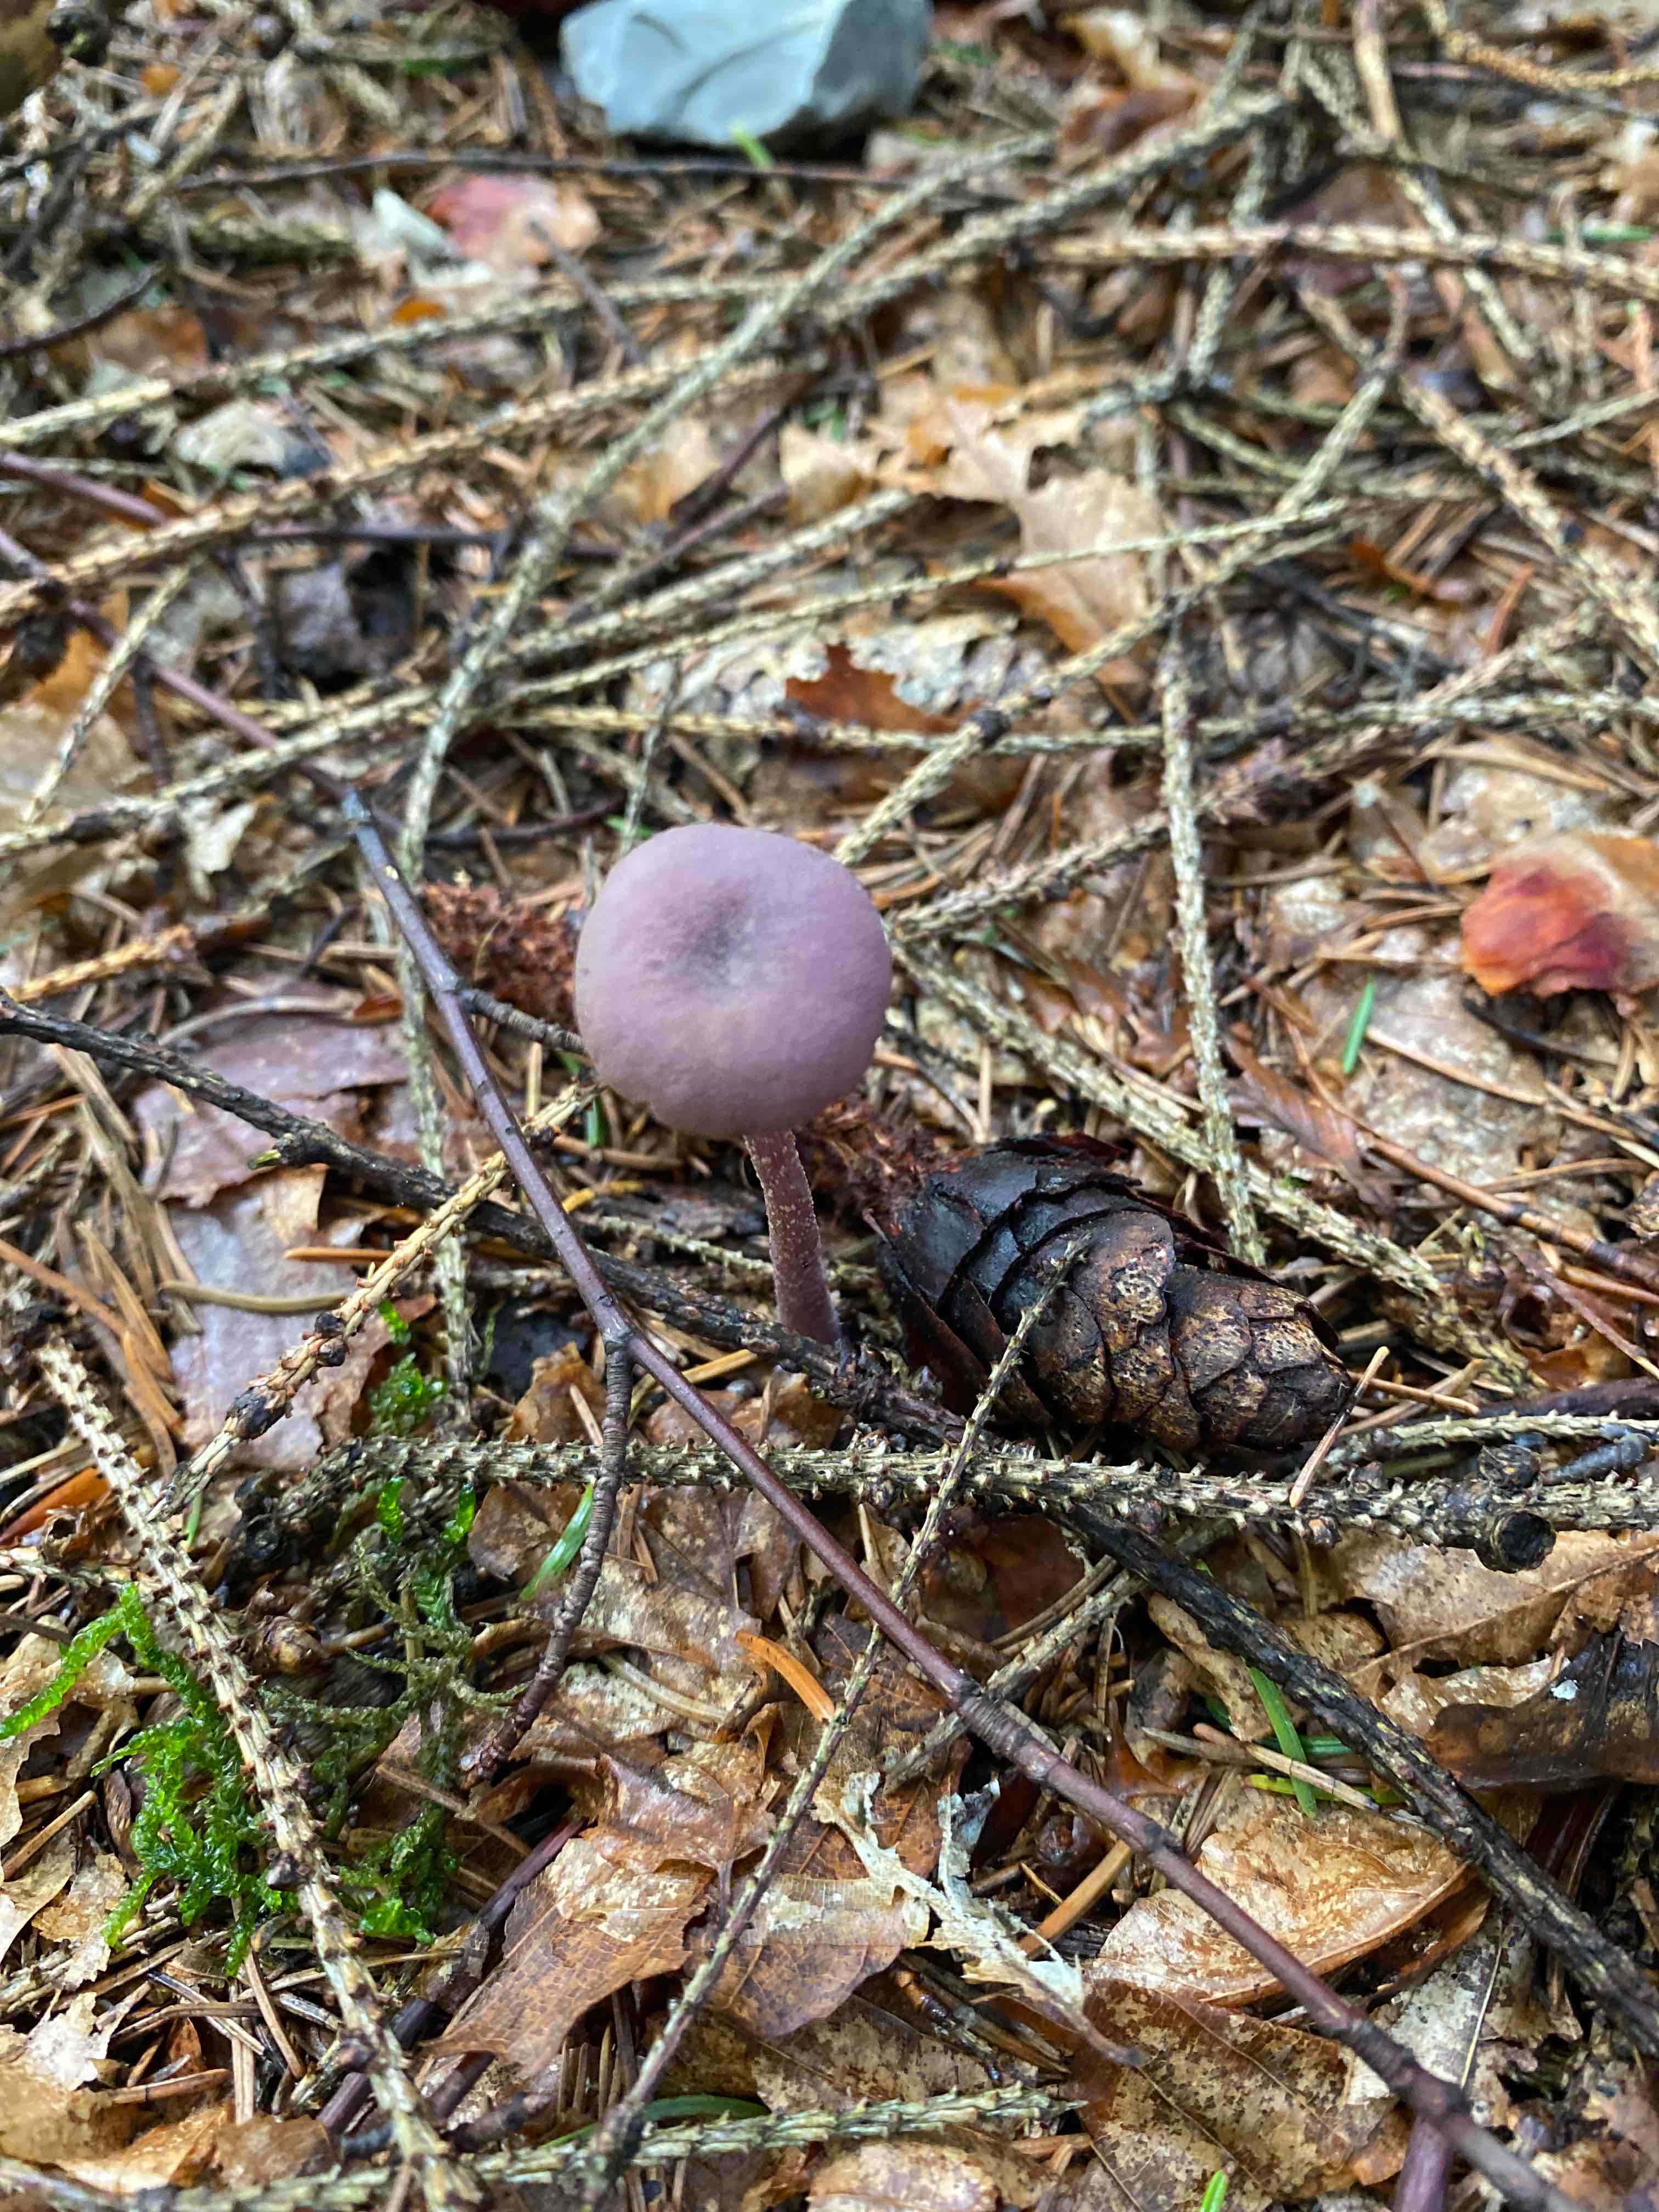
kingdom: Fungi
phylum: Basidiomycota
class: Agaricomycetes
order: Agaricales
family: Hydnangiaceae
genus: Laccaria
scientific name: Laccaria amethystina
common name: violet ametysthat
